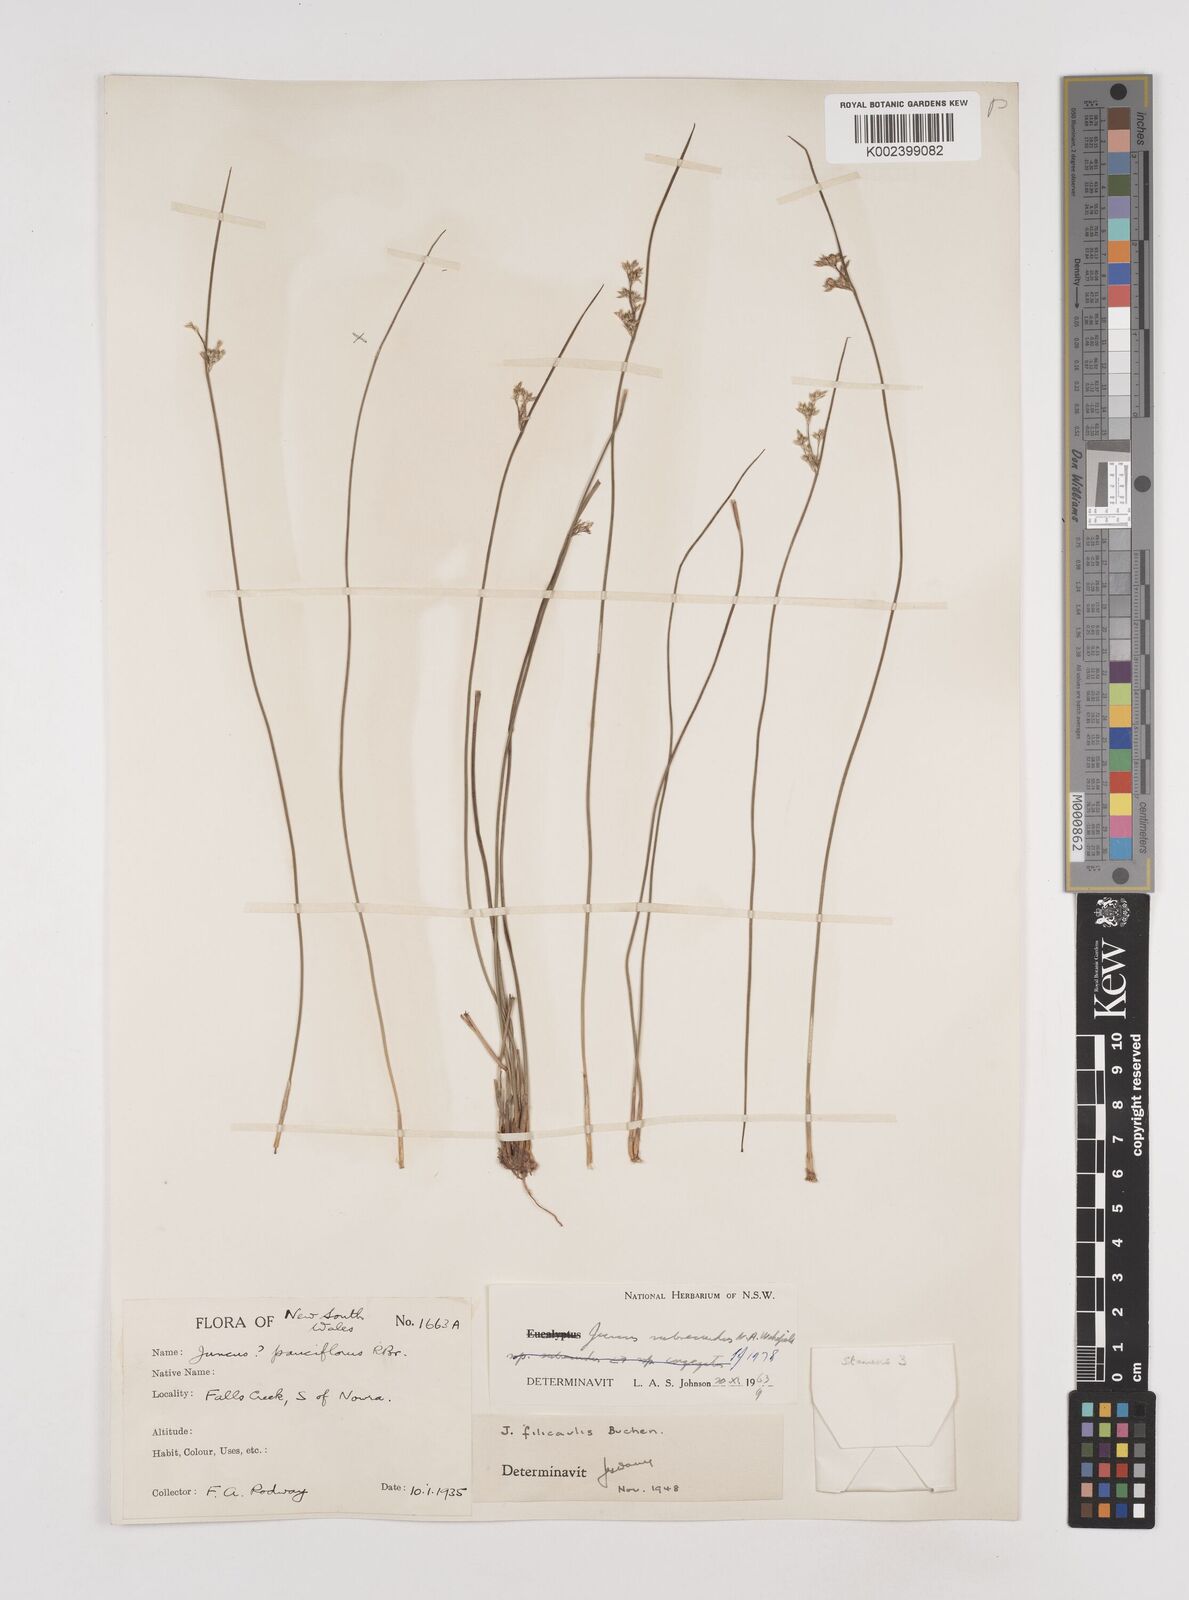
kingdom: Plantae
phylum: Tracheophyta
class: Liliopsida
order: Poales
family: Juncaceae
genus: Juncus
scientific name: Juncus subsecundus
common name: Fingered rush
